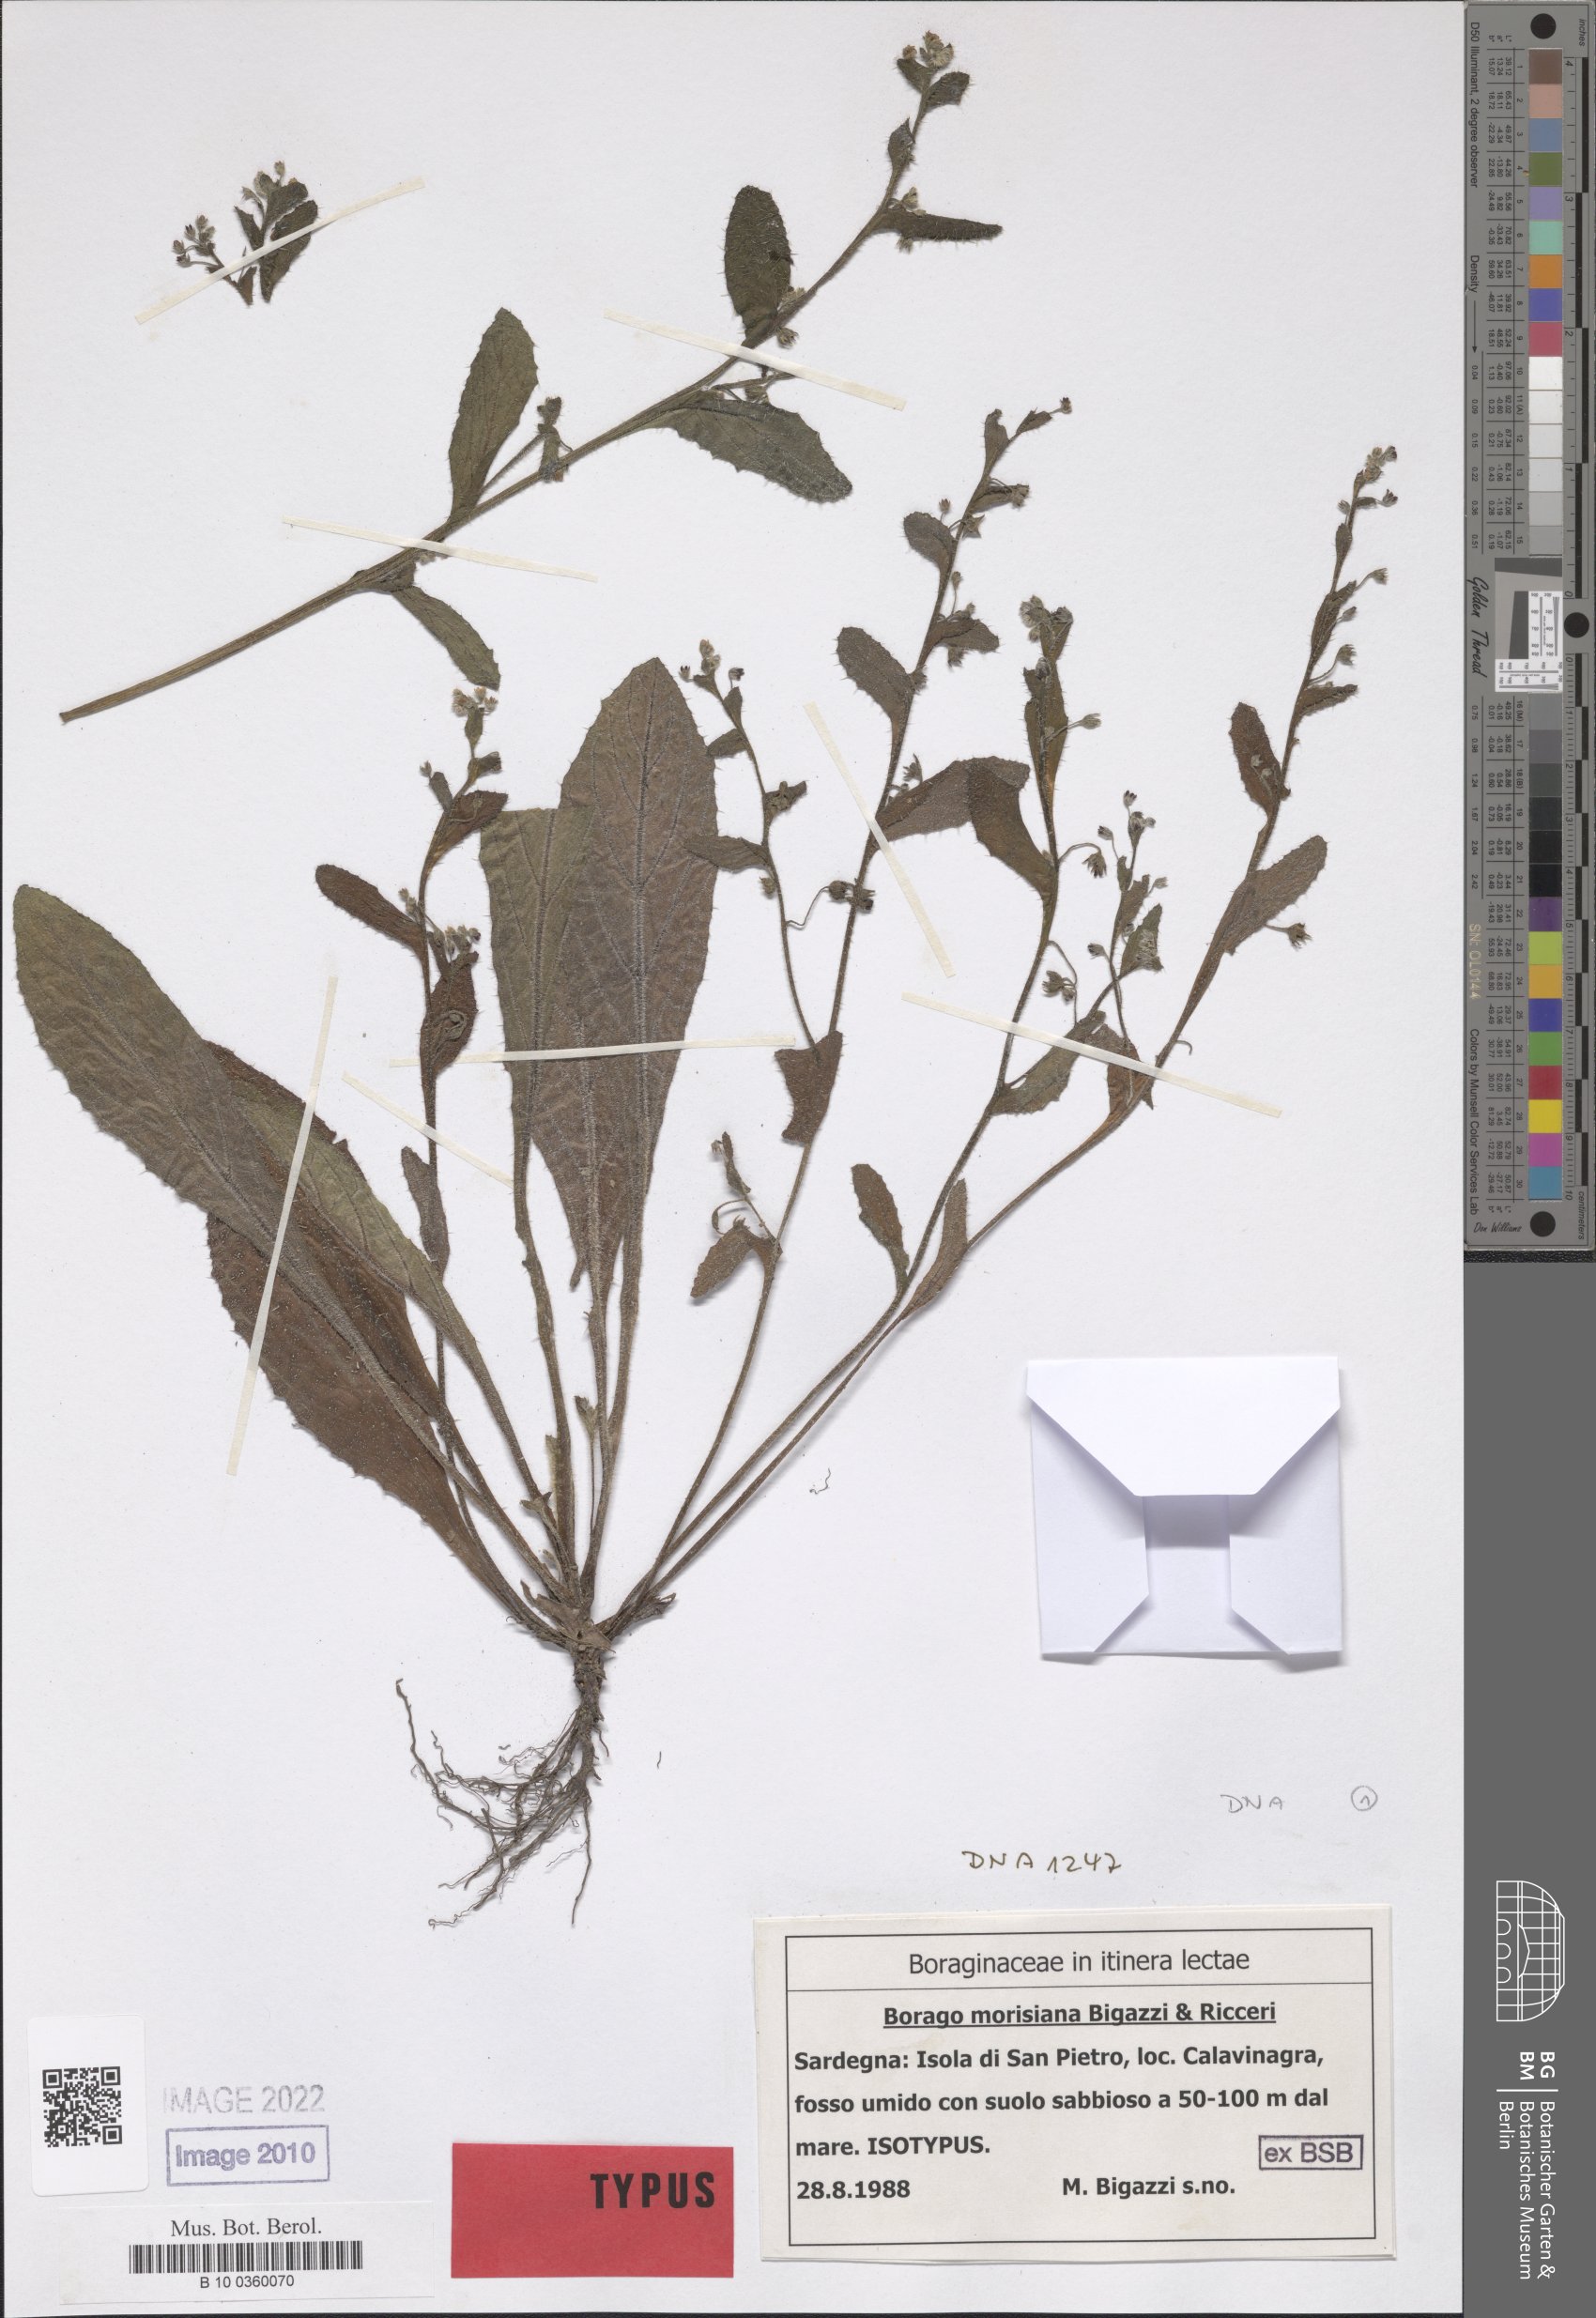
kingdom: Plantae
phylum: Tracheophyta
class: Magnoliopsida
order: Boraginales
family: Boraginaceae
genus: Borago
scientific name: Borago morisiana
